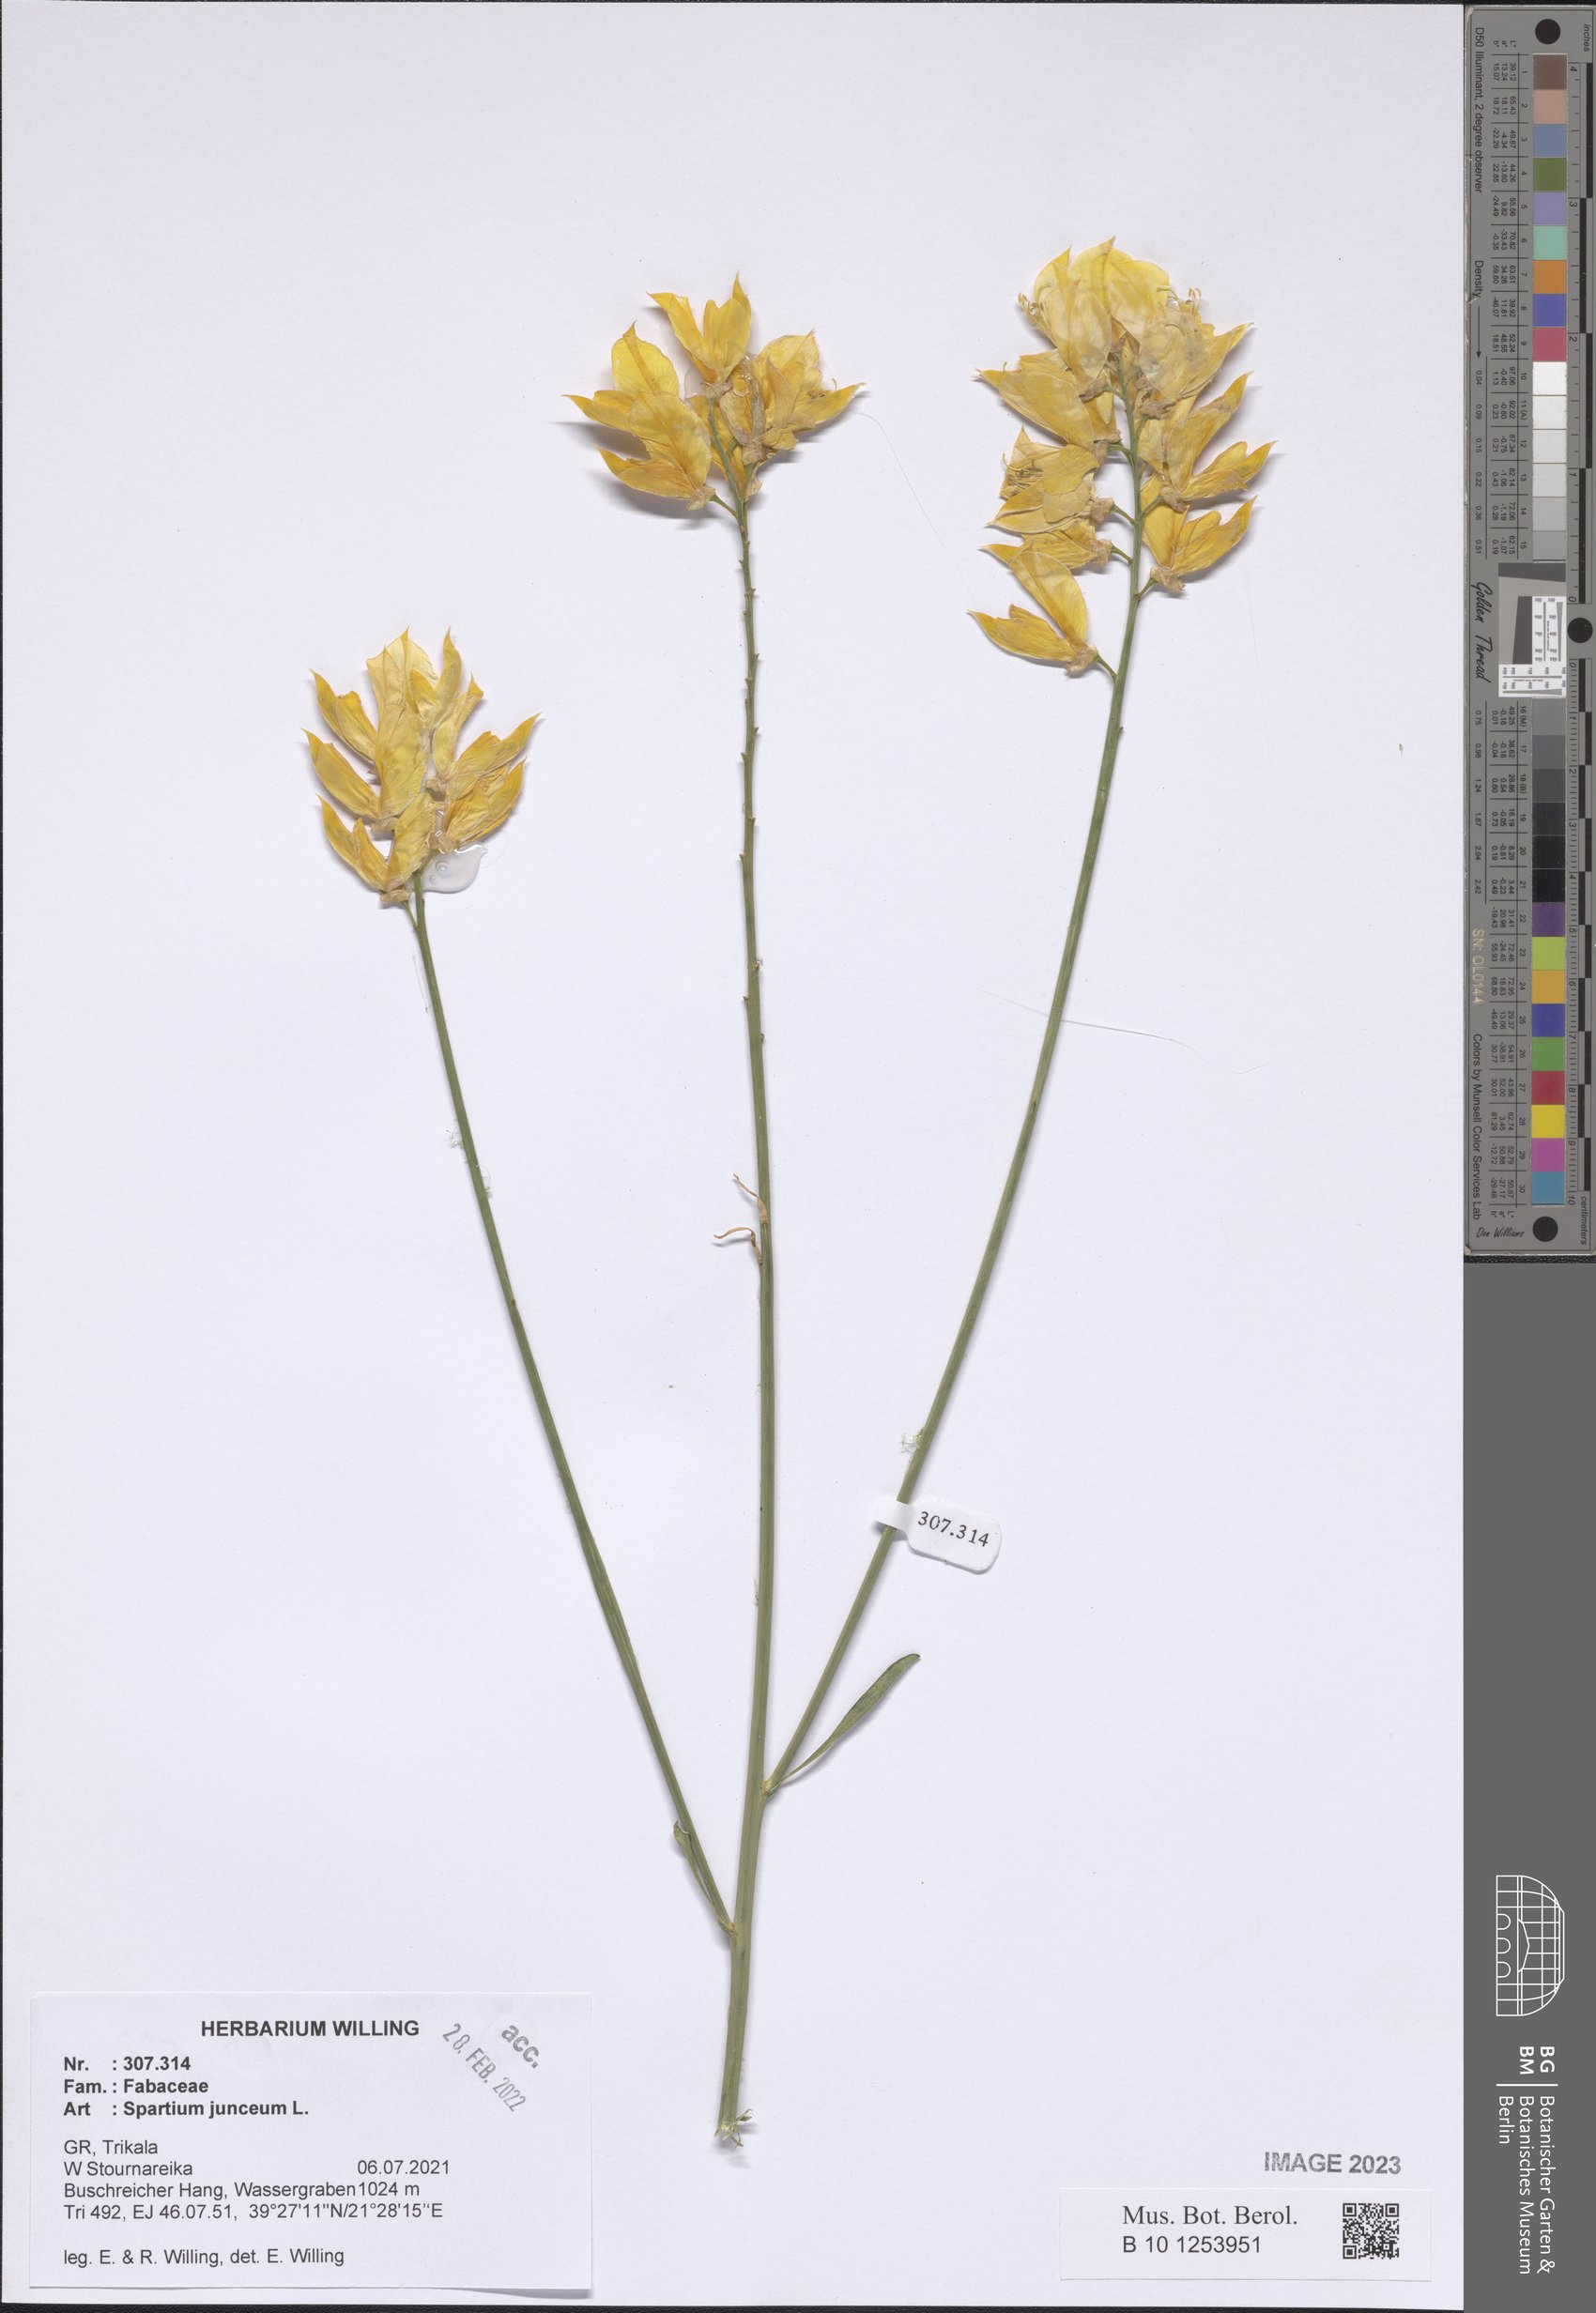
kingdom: Plantae
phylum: Tracheophyta
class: Magnoliopsida
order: Fabales
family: Fabaceae
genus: Spartium
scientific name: Spartium junceum
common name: Spanish broom
